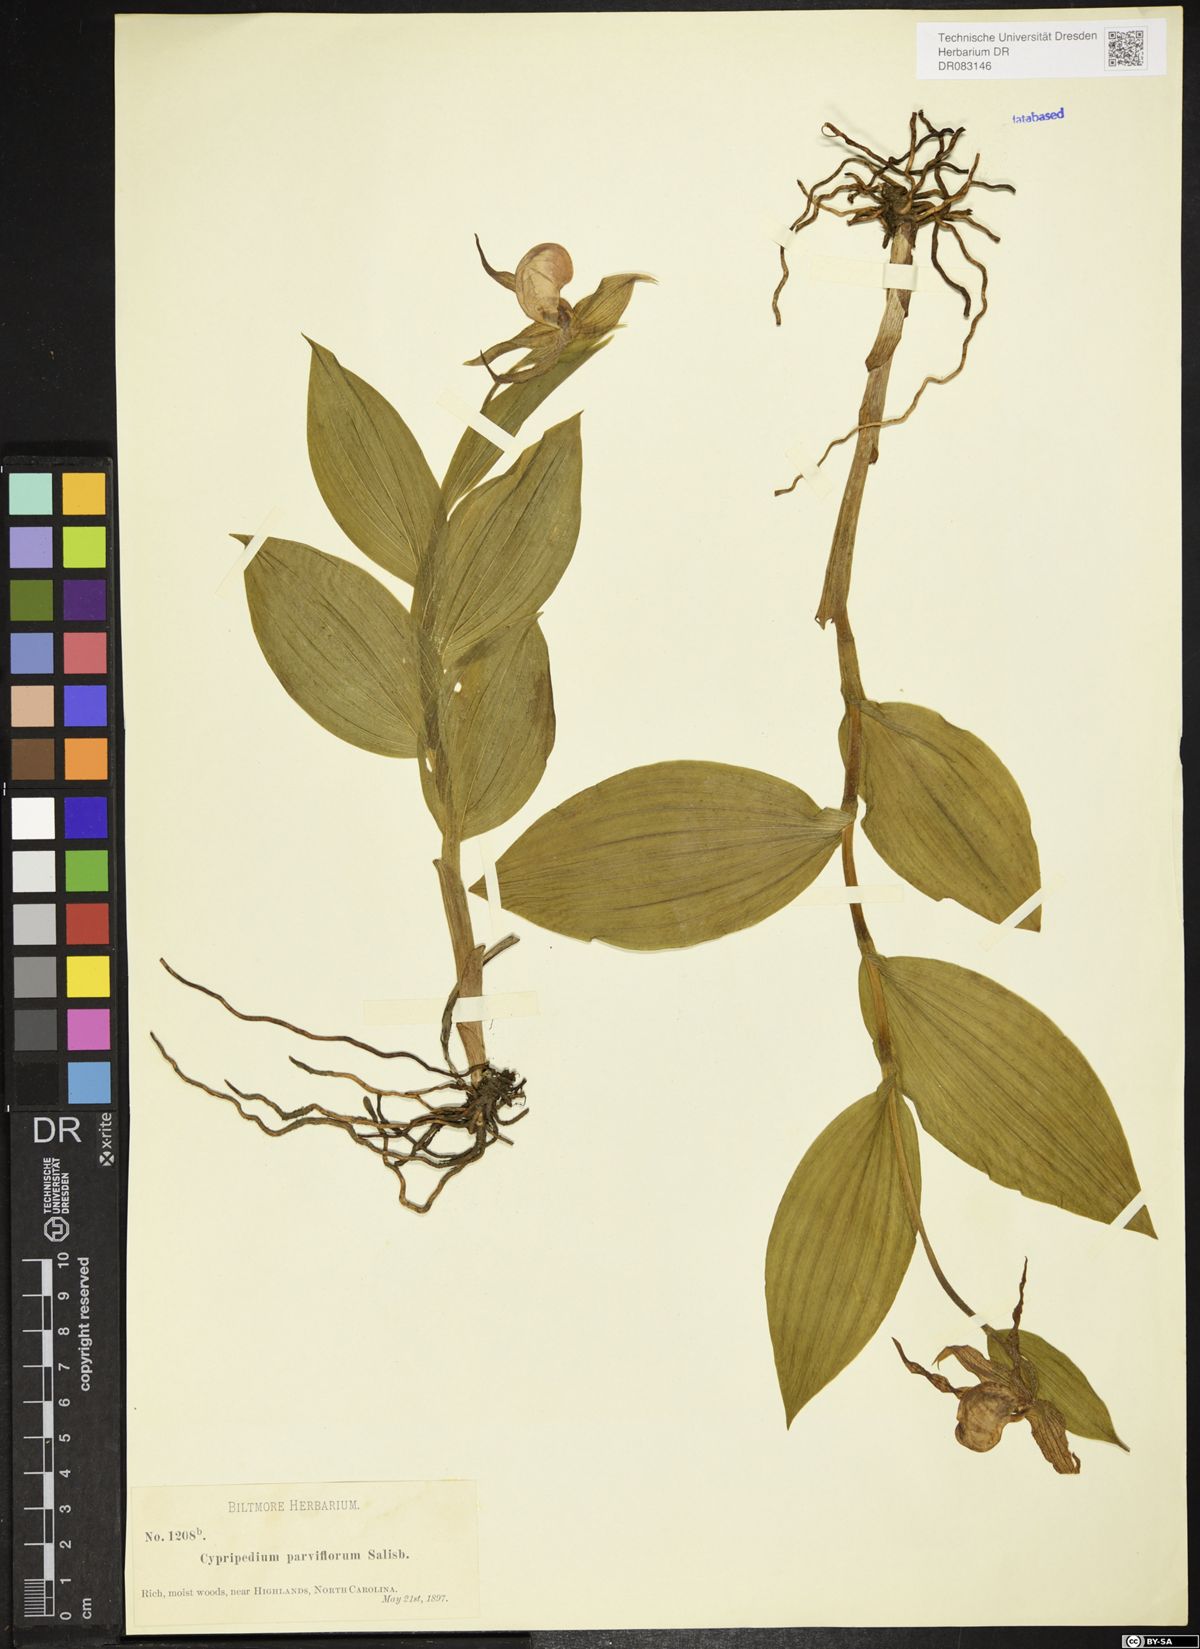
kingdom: Plantae
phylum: Tracheophyta
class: Liliopsida
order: Asparagales
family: Orchidaceae
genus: Cypripedium
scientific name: Cypripedium parviflorum
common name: American yellow lady's-slipper
